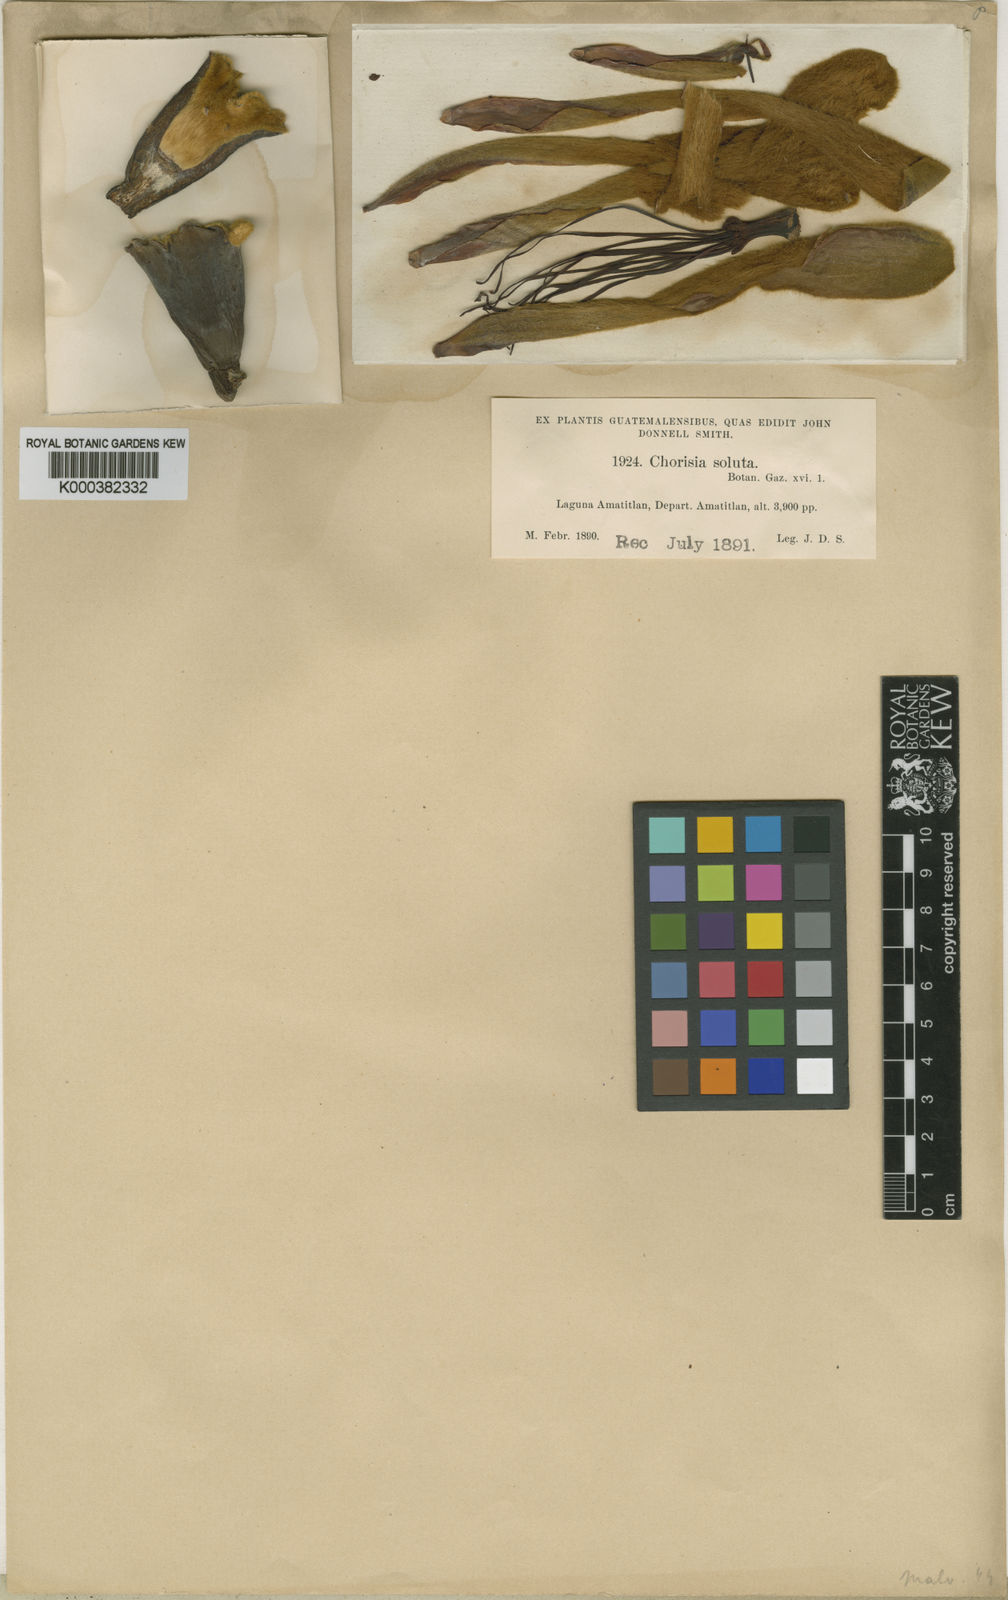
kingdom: Plantae
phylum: Tracheophyta
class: Magnoliopsida
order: Malvales
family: Malvaceae
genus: Ceiba
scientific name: Ceiba soluta
